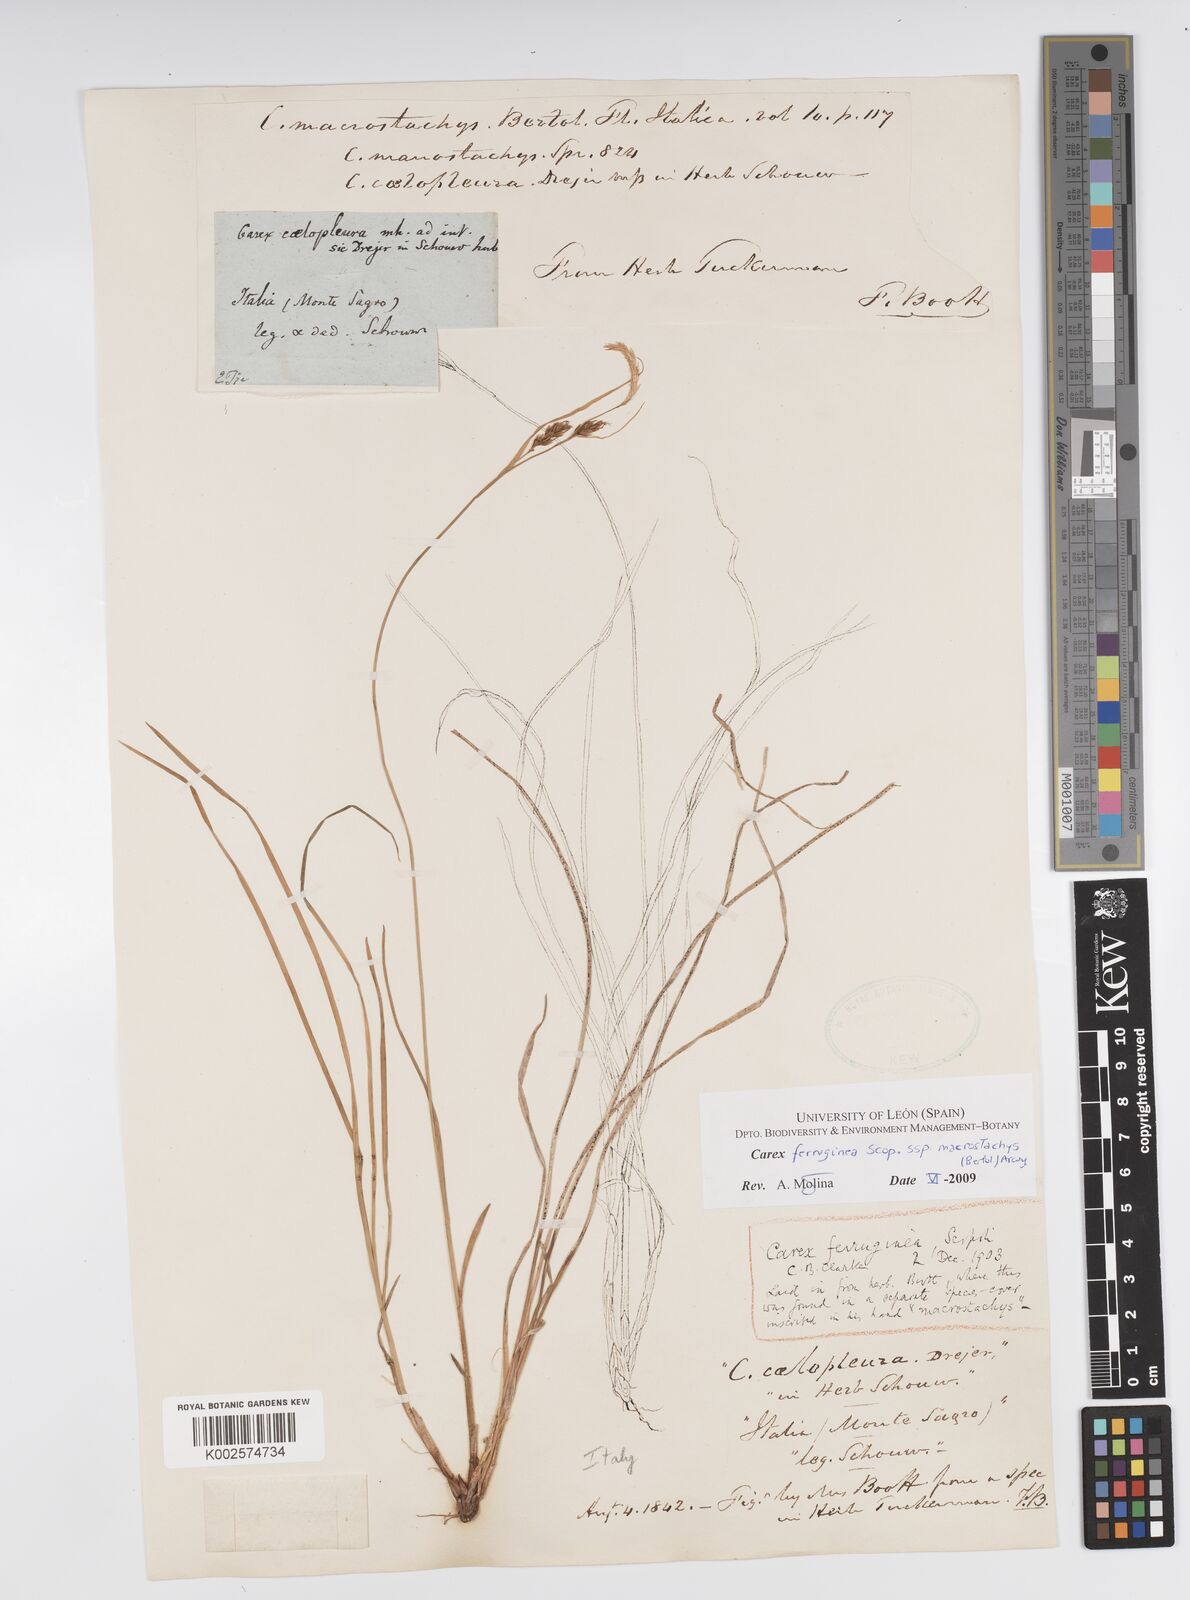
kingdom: Plantae
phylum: Tracheophyta
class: Liliopsida
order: Poales
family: Cyperaceae
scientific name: Cyperaceae
